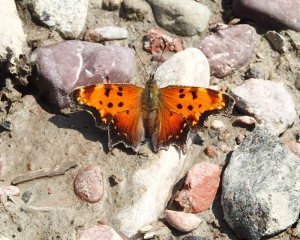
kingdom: Animalia
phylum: Arthropoda
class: Insecta
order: Lepidoptera
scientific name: Lepidoptera
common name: Butterflies
